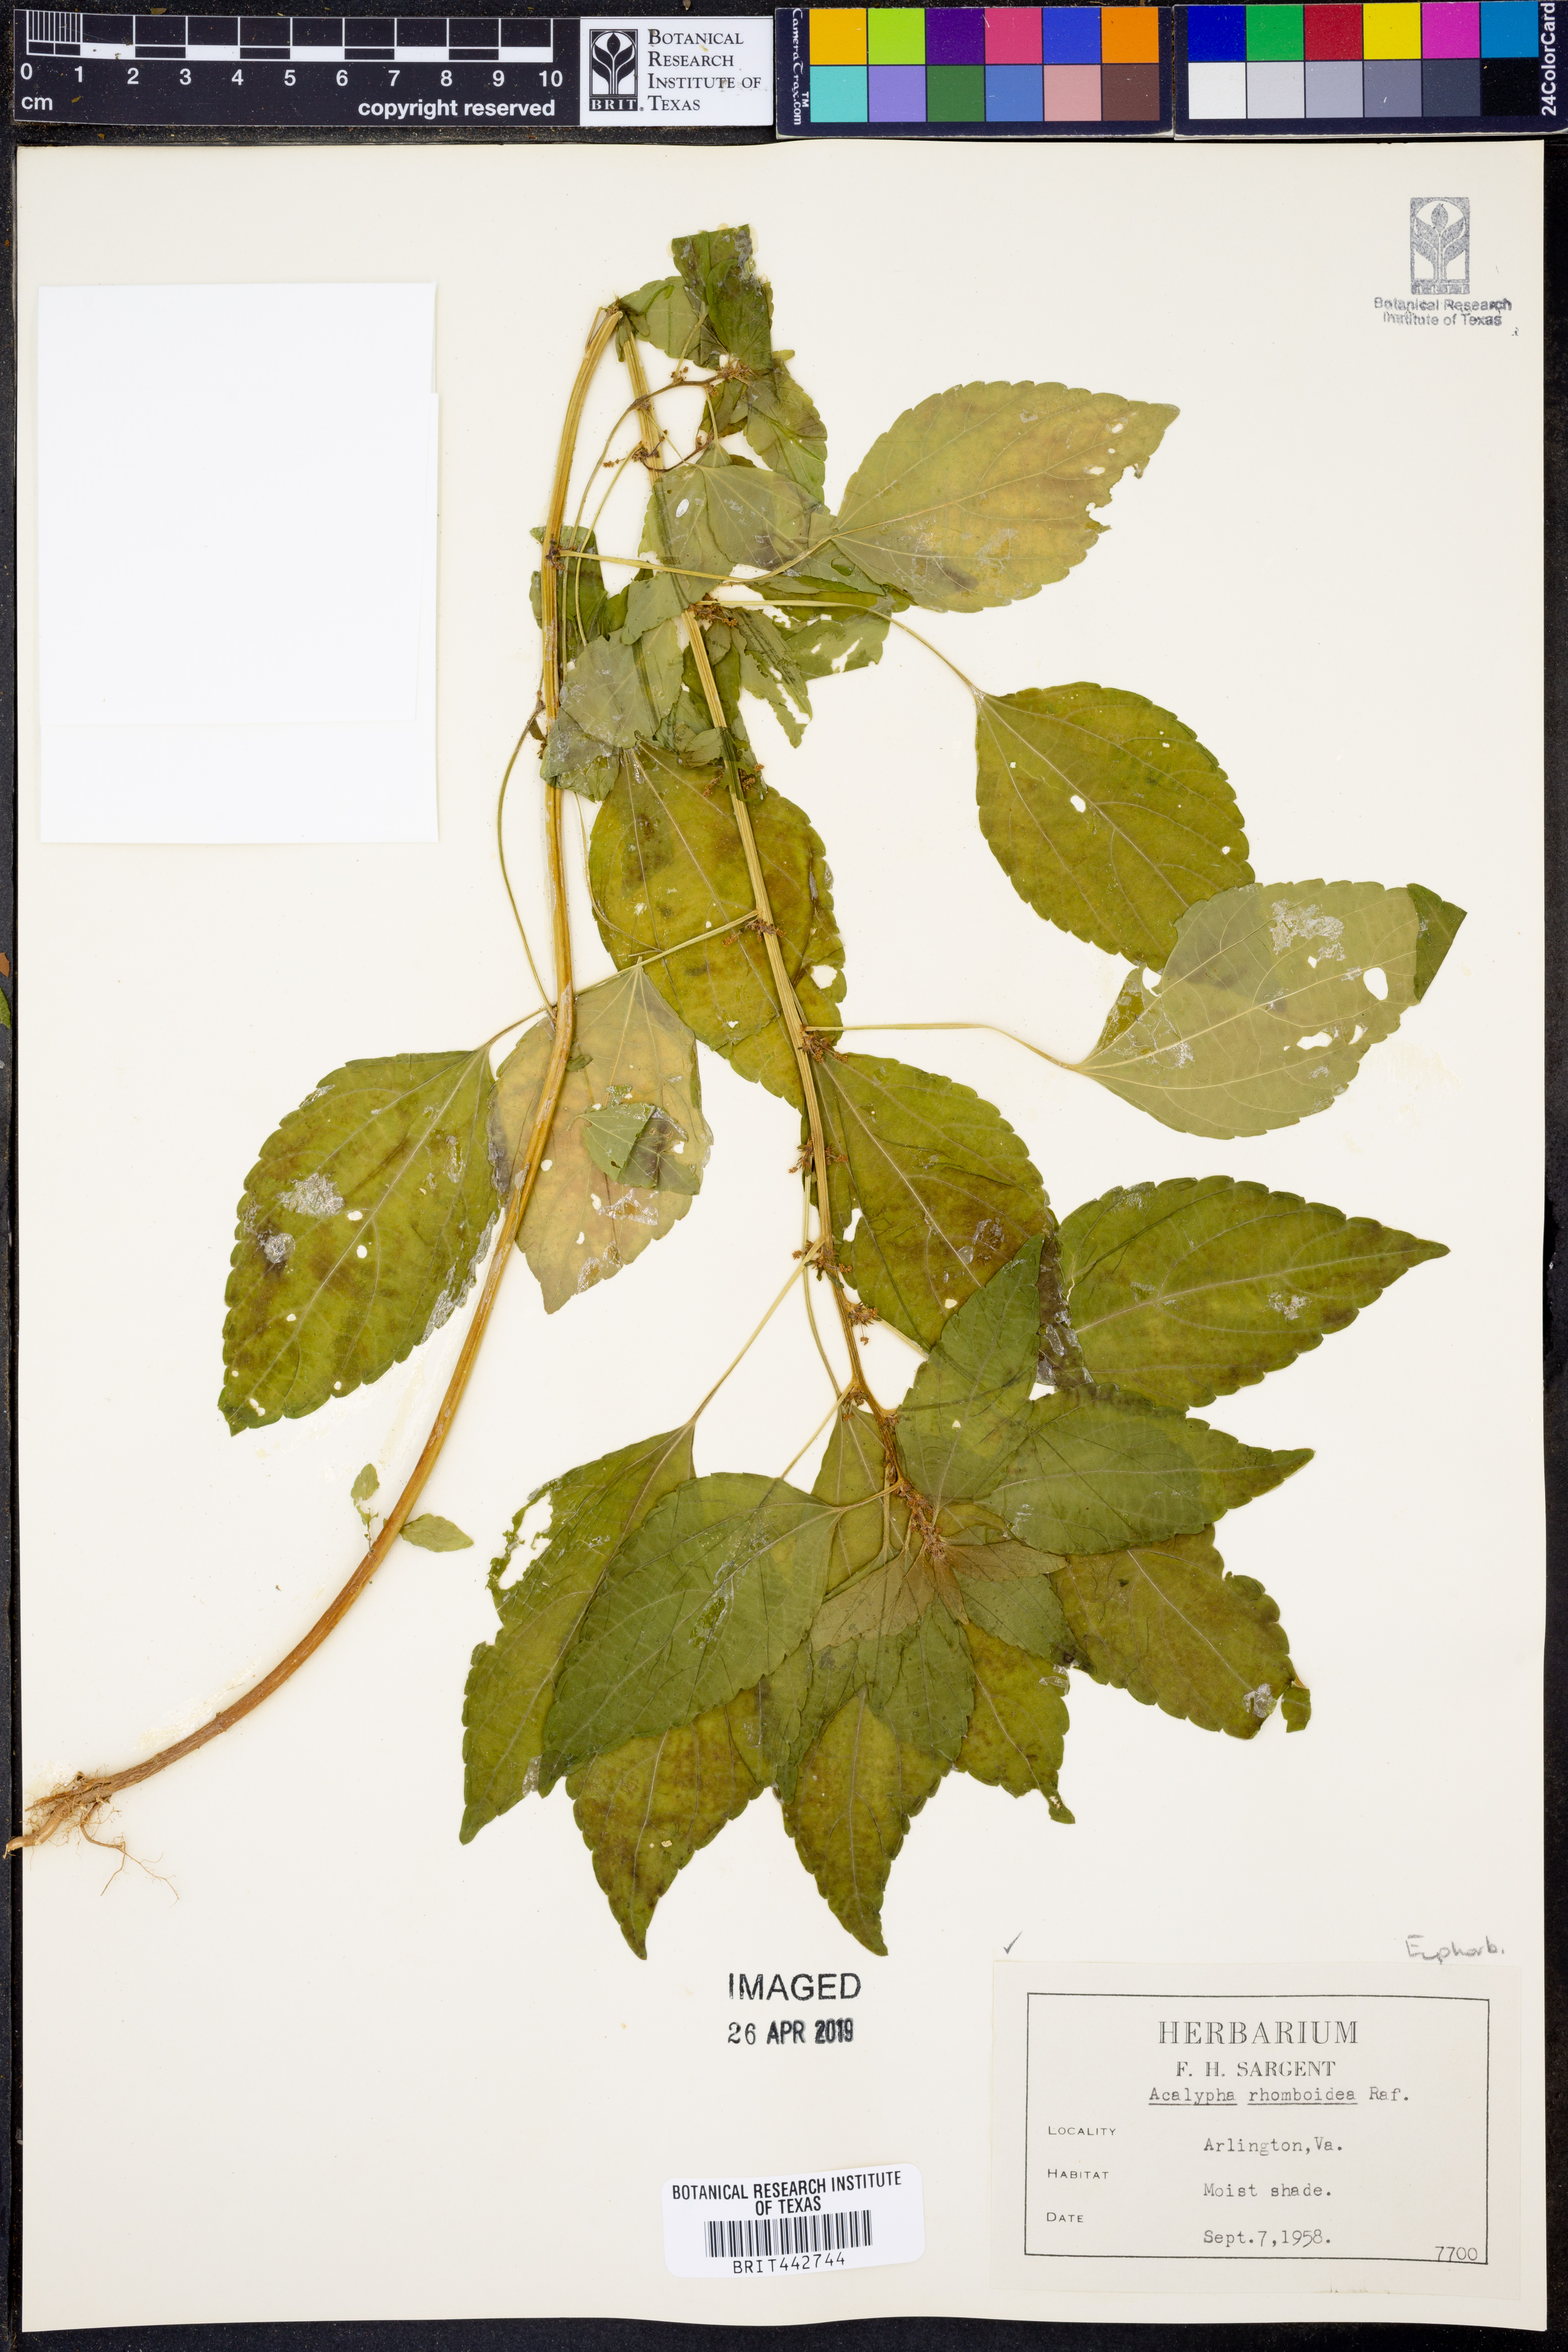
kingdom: Plantae
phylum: Tracheophyta
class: Magnoliopsida
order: Malpighiales
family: Euphorbiaceae
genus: Acalypha
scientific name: Acalypha rhomboidea
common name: Rhombic copperleaf
